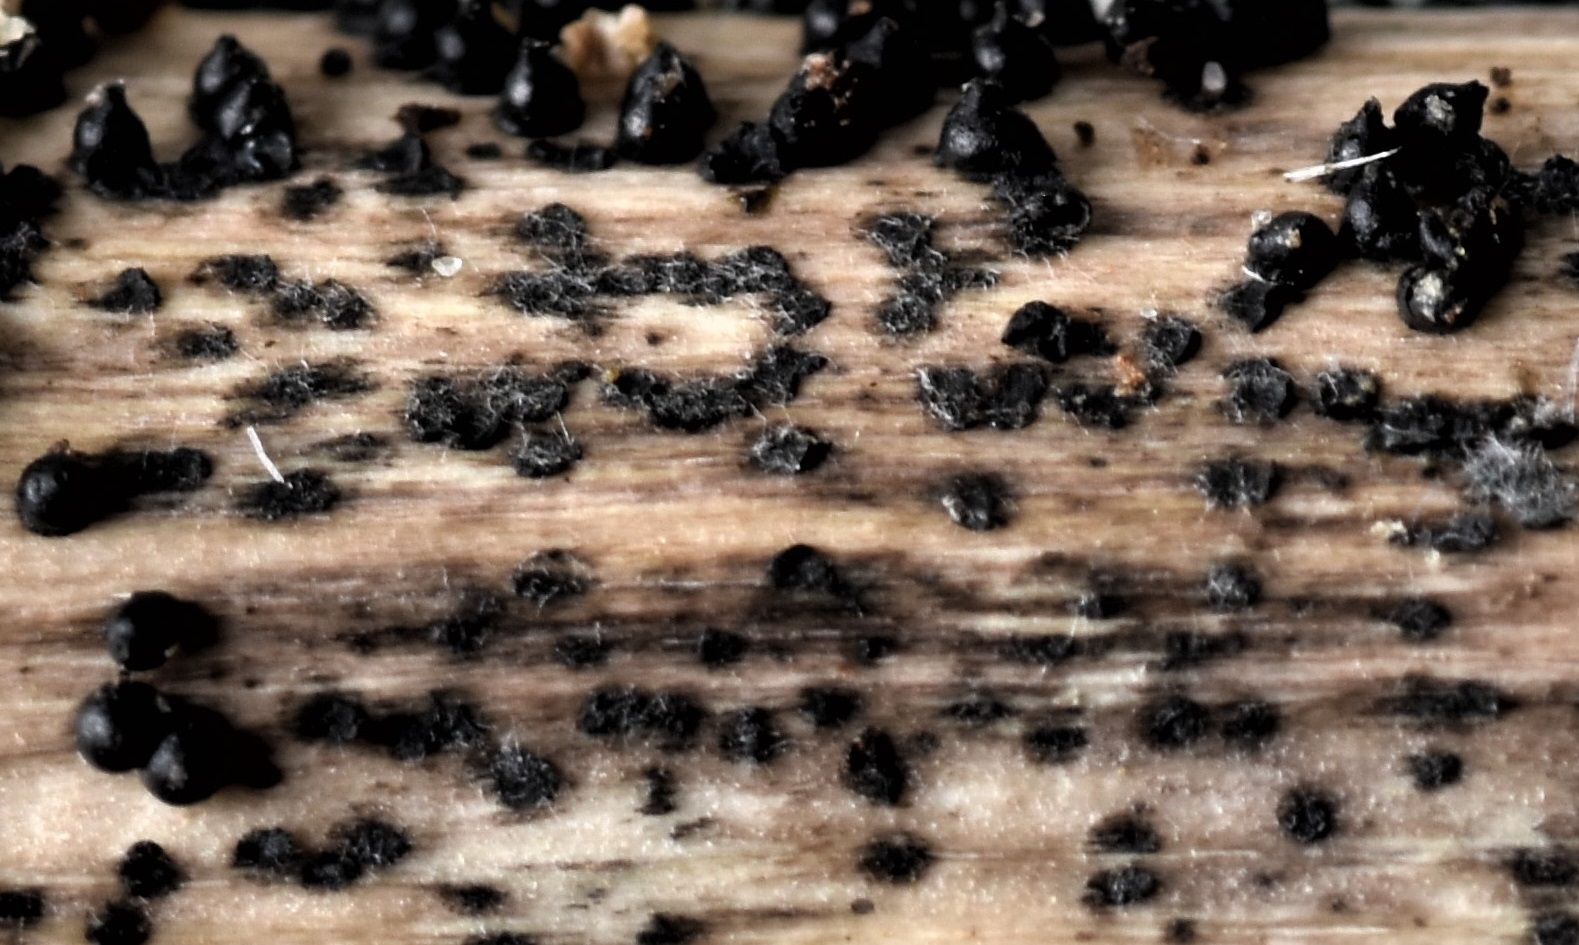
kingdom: Fungi
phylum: Ascomycota
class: Dothideomycetes
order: Pleosporales
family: Leptosphaeriaceae
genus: Leptosphaeria
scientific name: Leptosphaeria acuta
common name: spids kulkegle
